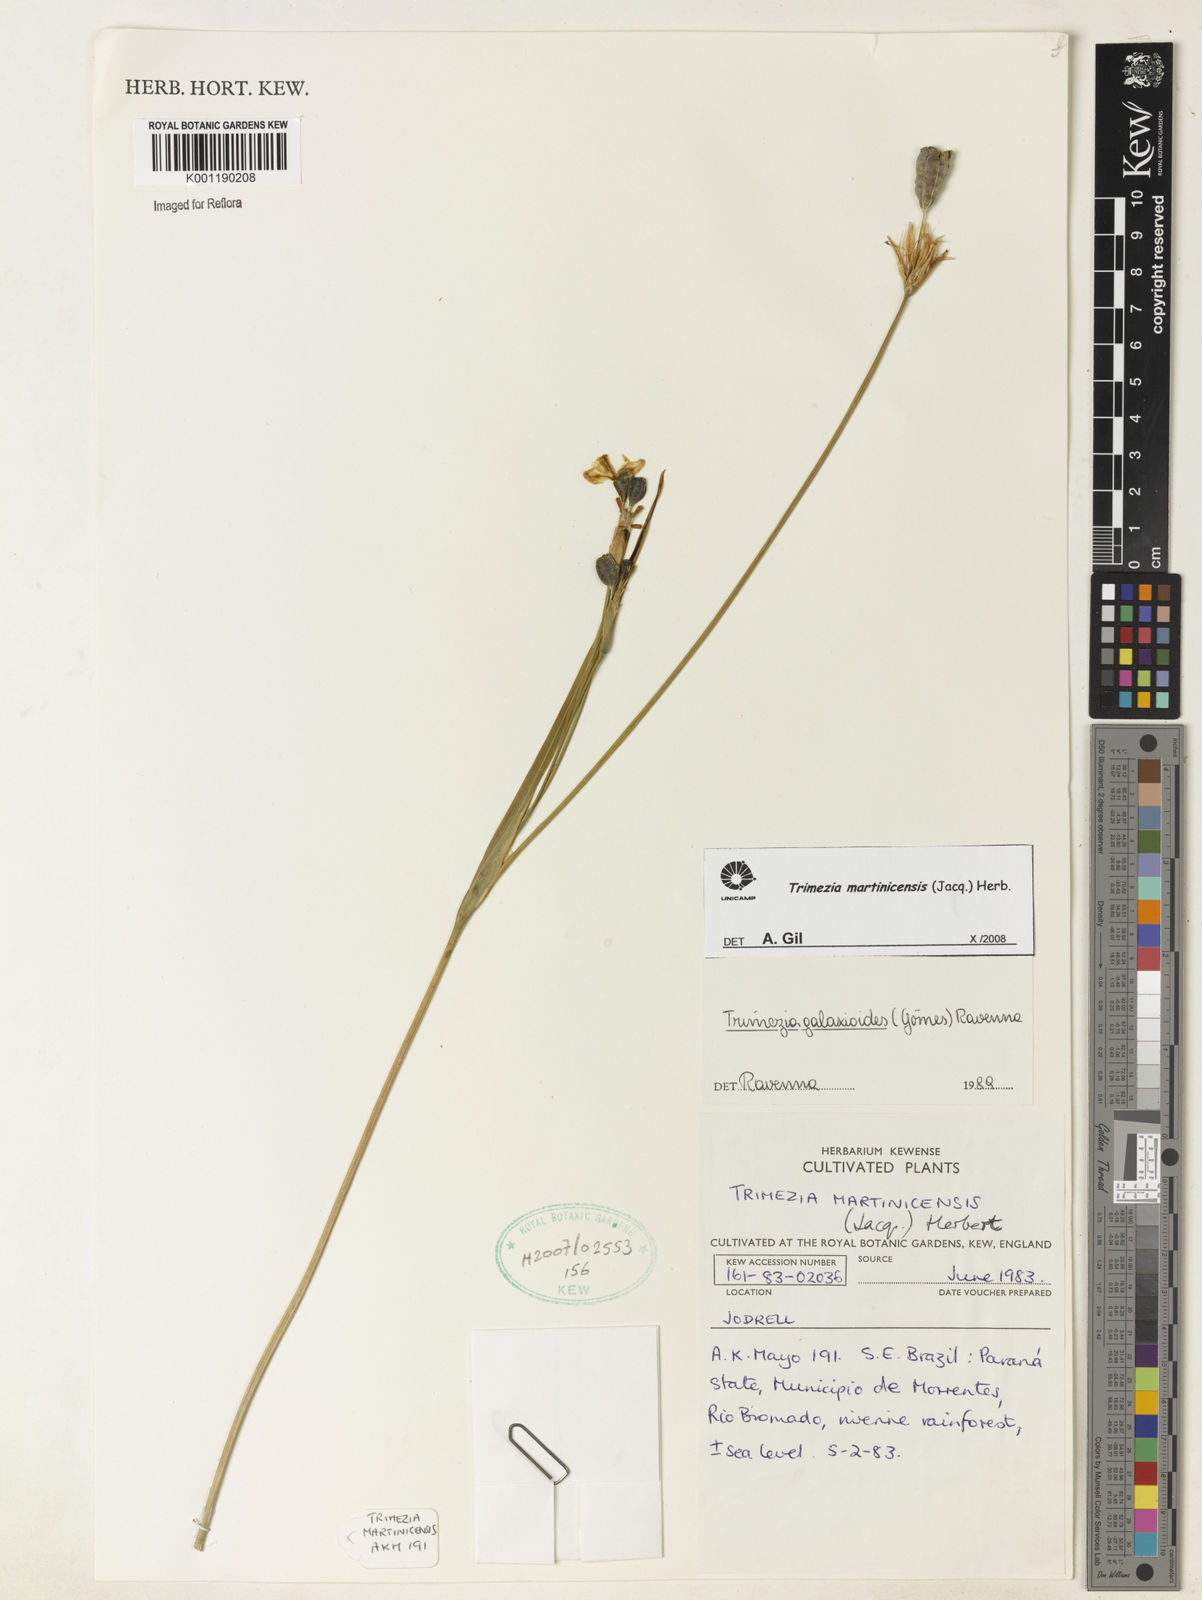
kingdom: Plantae
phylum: Tracheophyta
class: Liliopsida
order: Asparagales
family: Iridaceae
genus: Trimezia
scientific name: Trimezia martinicensis
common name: Martinique trimezia
